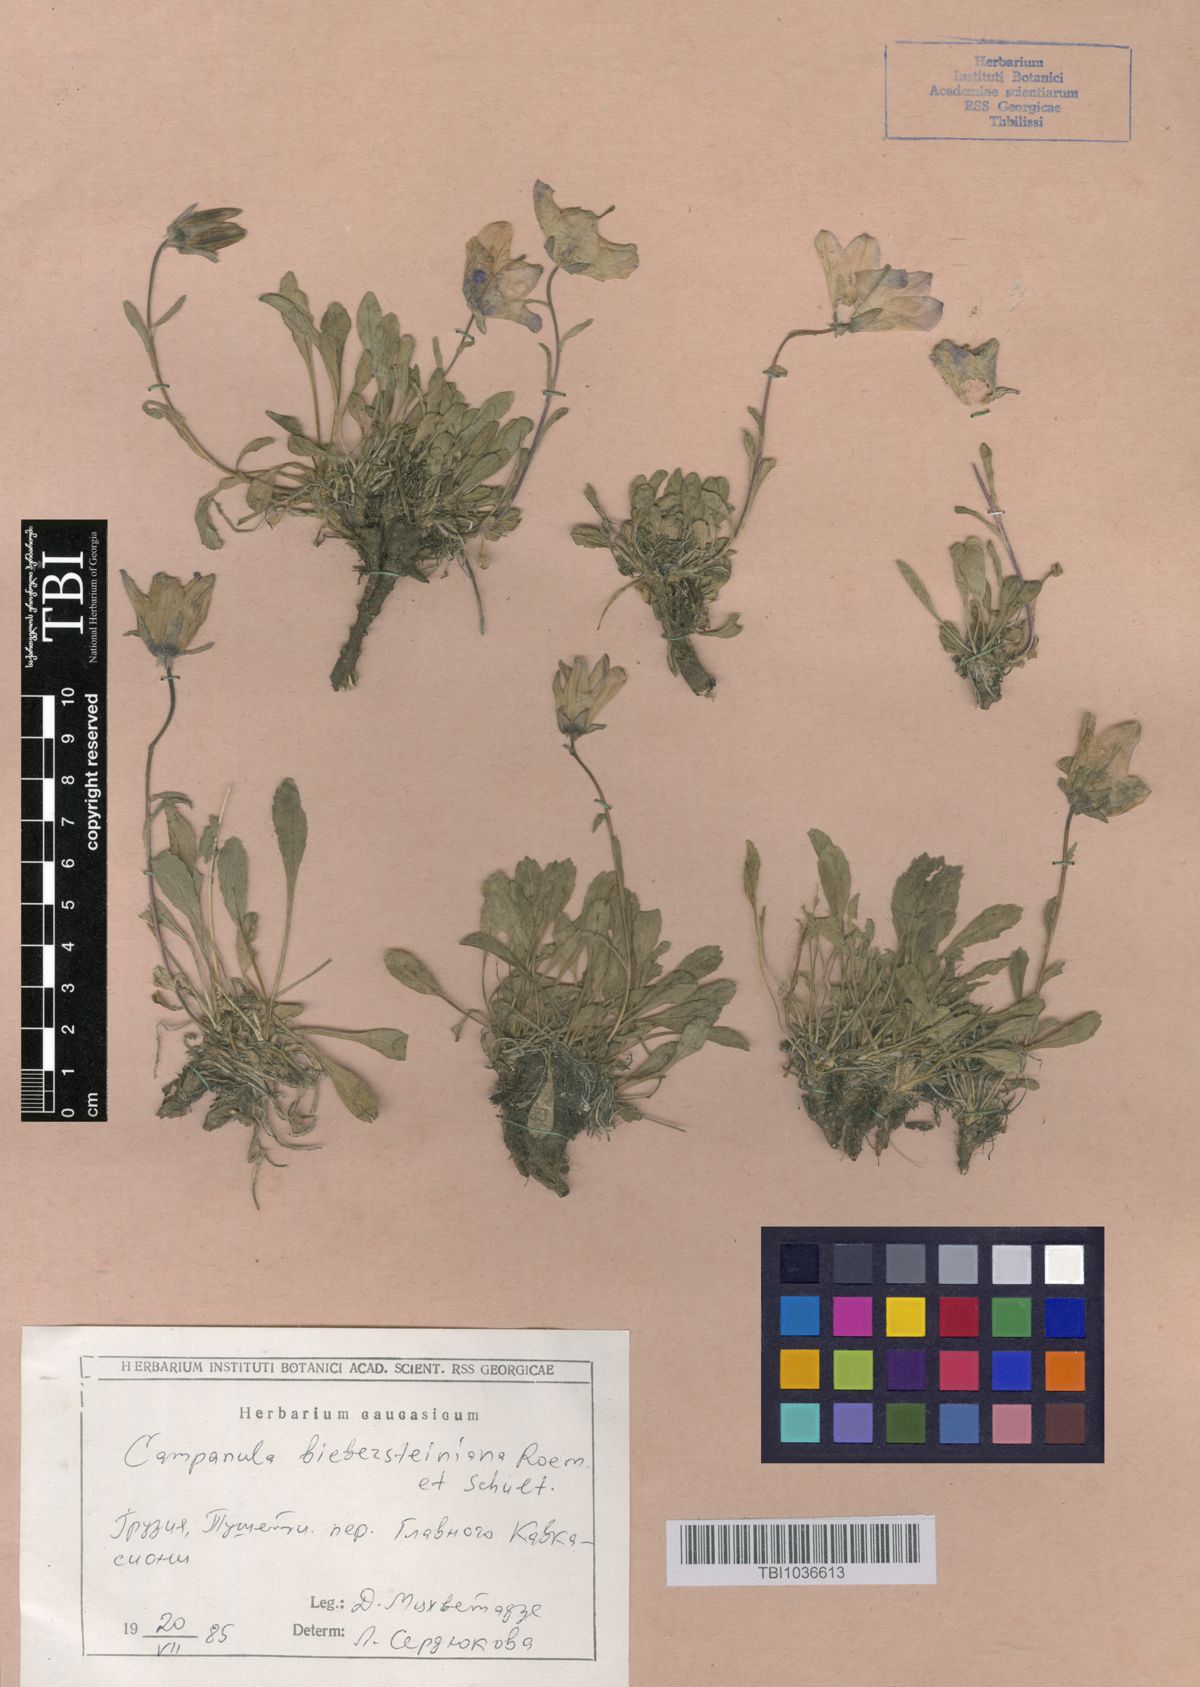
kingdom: Plantae
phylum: Tracheophyta
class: Magnoliopsida
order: Asterales
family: Campanulaceae
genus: Campanula
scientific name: Campanula tridentata
